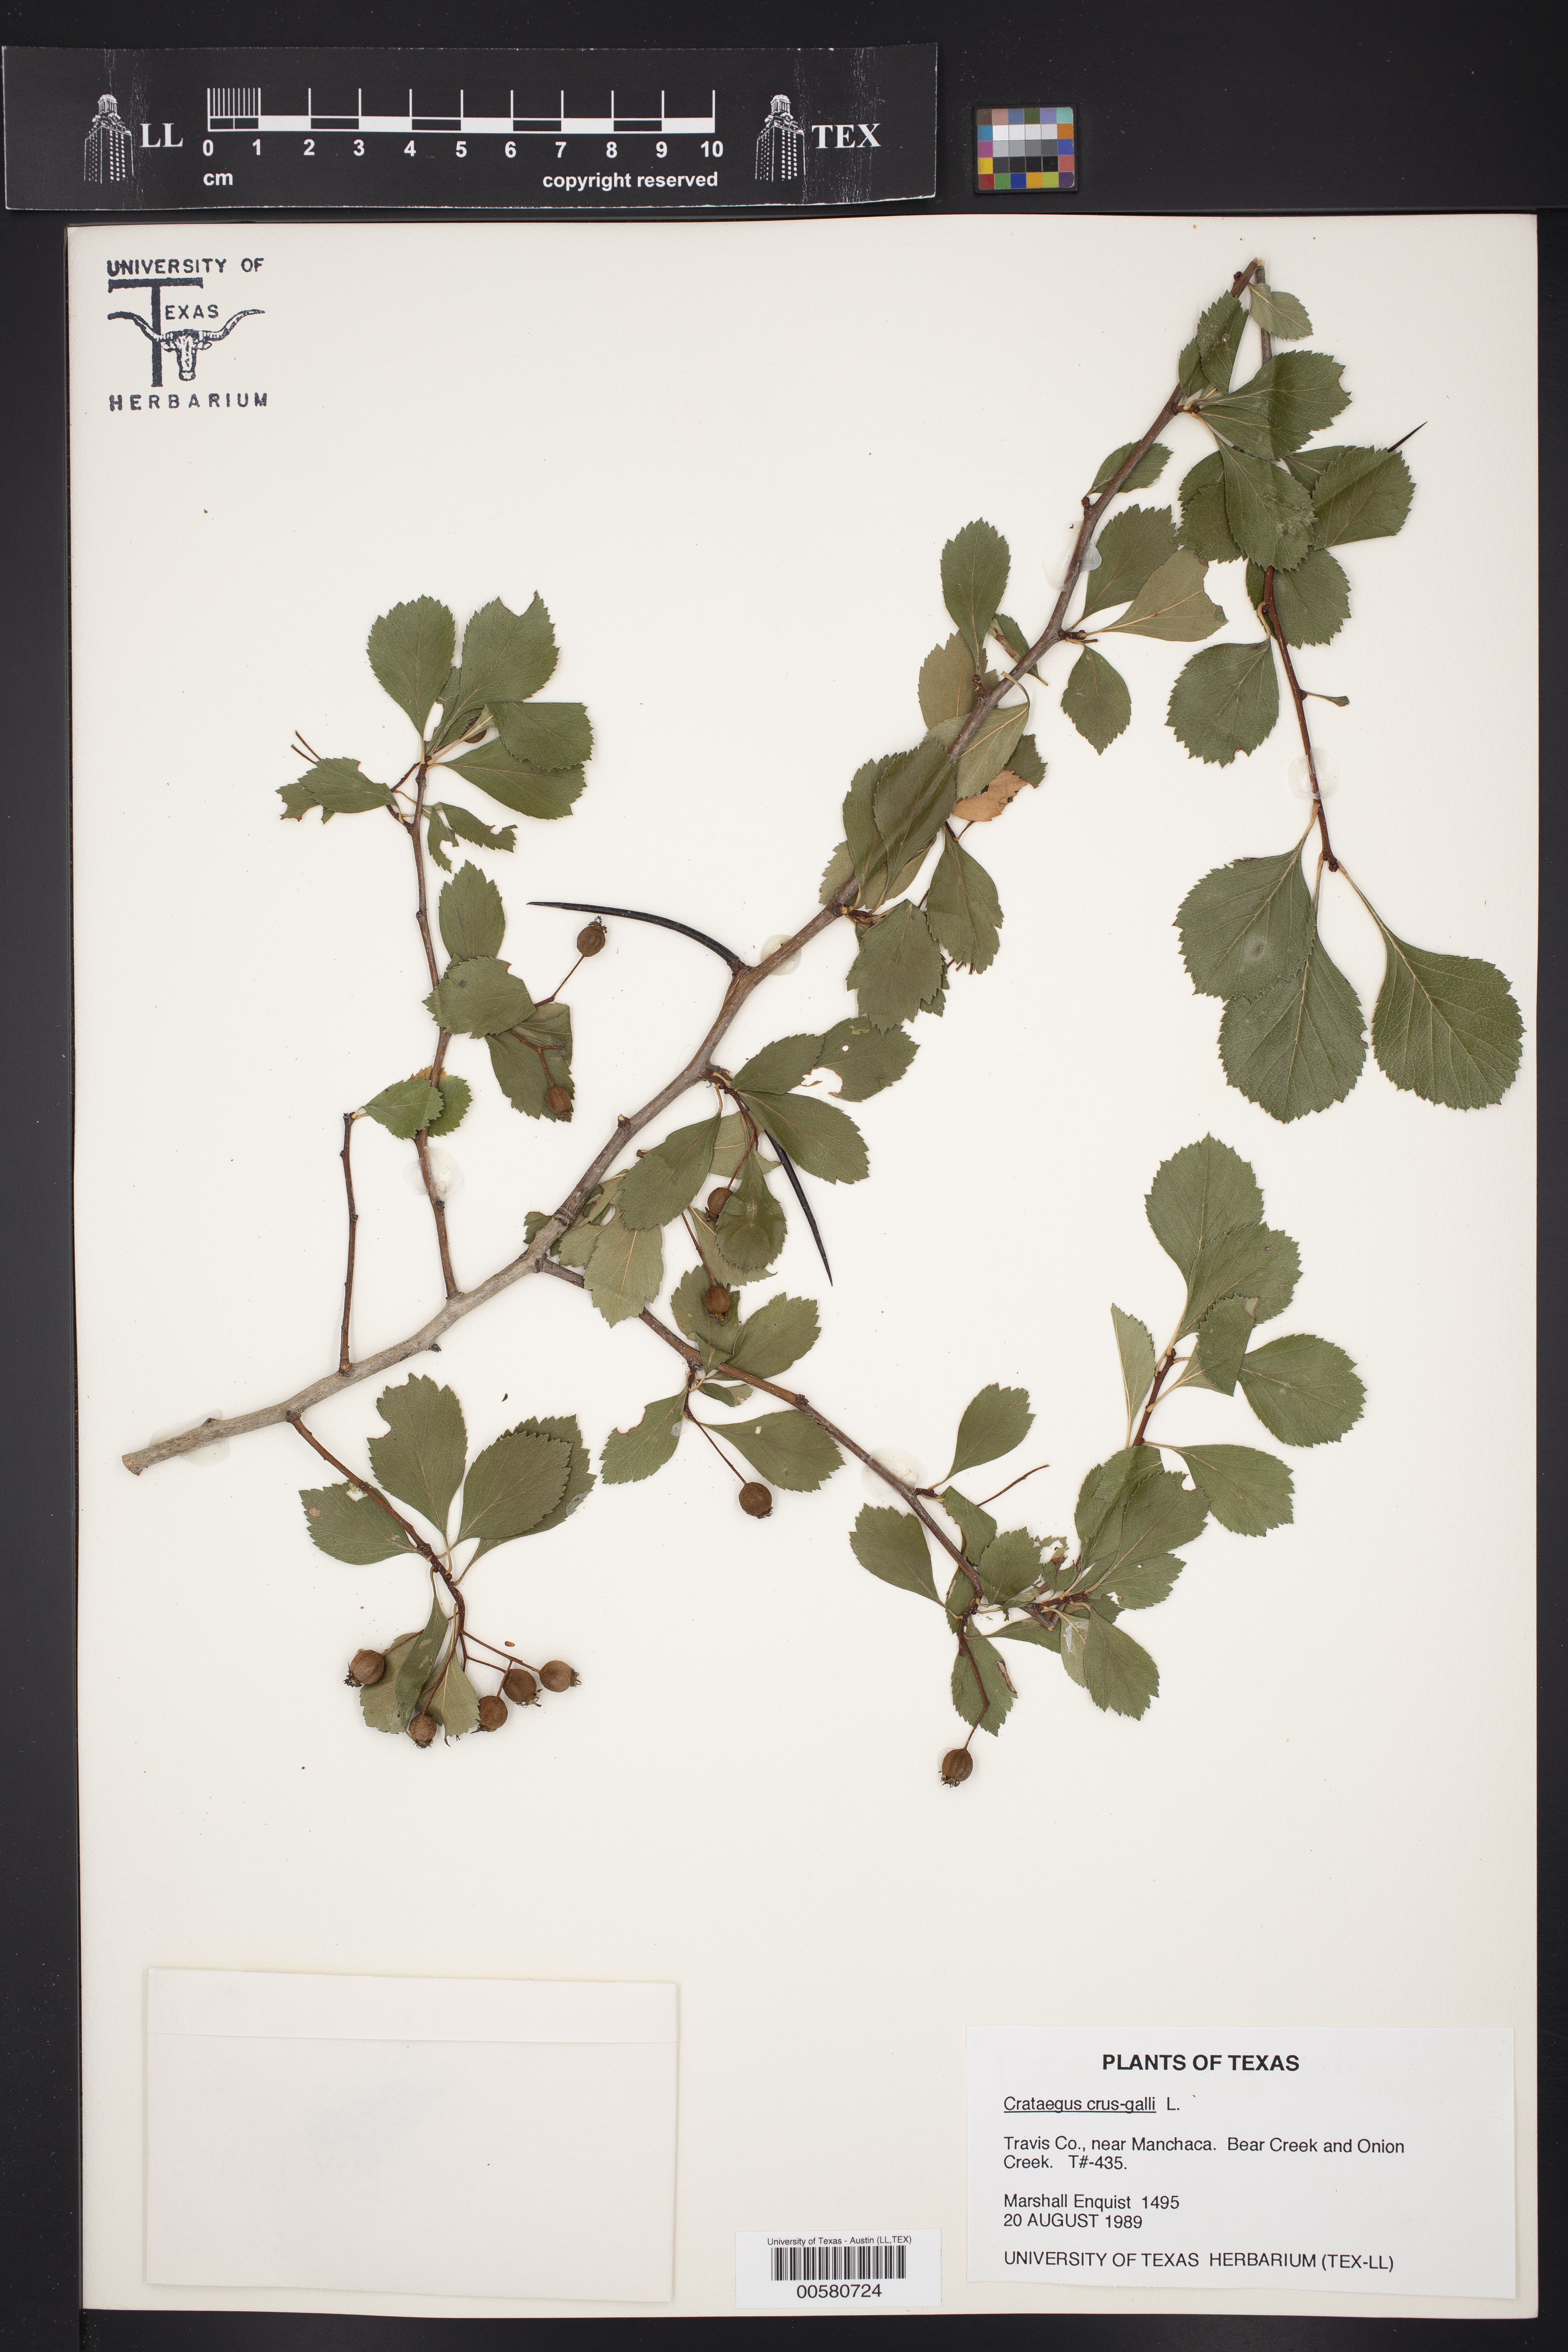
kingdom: Plantae
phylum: Tracheophyta
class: Magnoliopsida
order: Rosales
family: Rosaceae
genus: Crataegus
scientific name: Crataegus crus-galli
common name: Cockspurthorn
